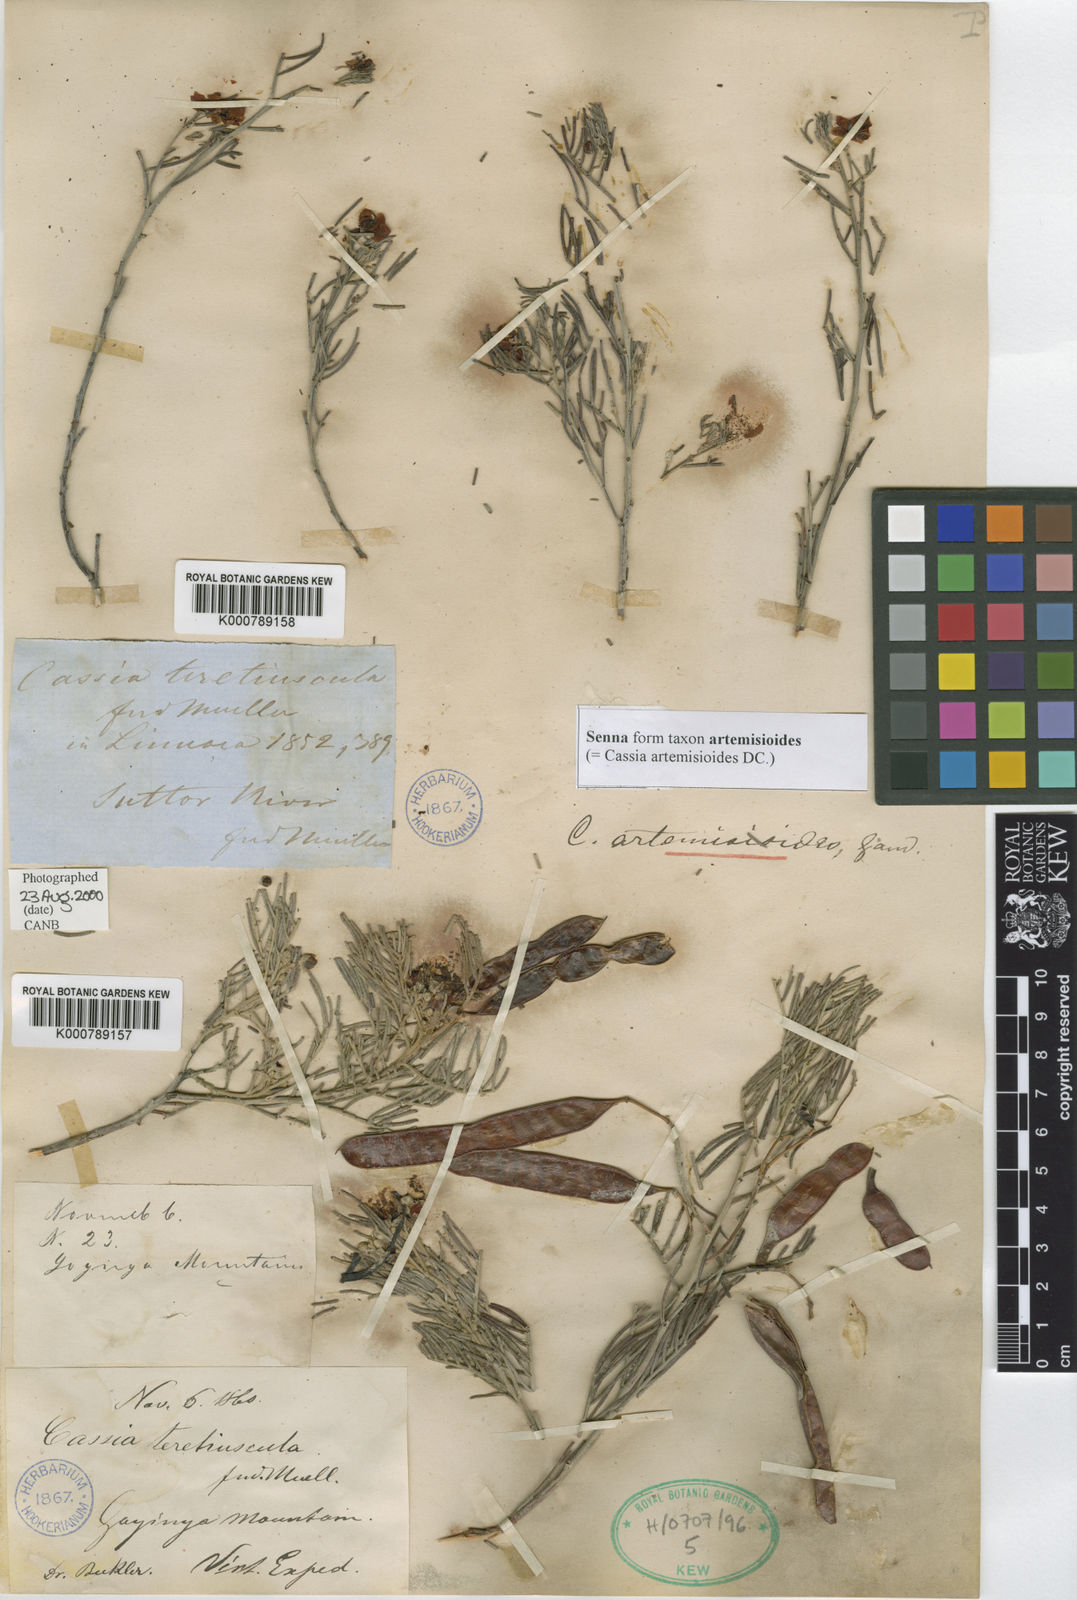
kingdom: Plantae
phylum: Tracheophyta
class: Magnoliopsida
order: Fabales
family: Fabaceae
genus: Senna
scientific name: Senna artemisioides
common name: Burnt-leaved acacia
